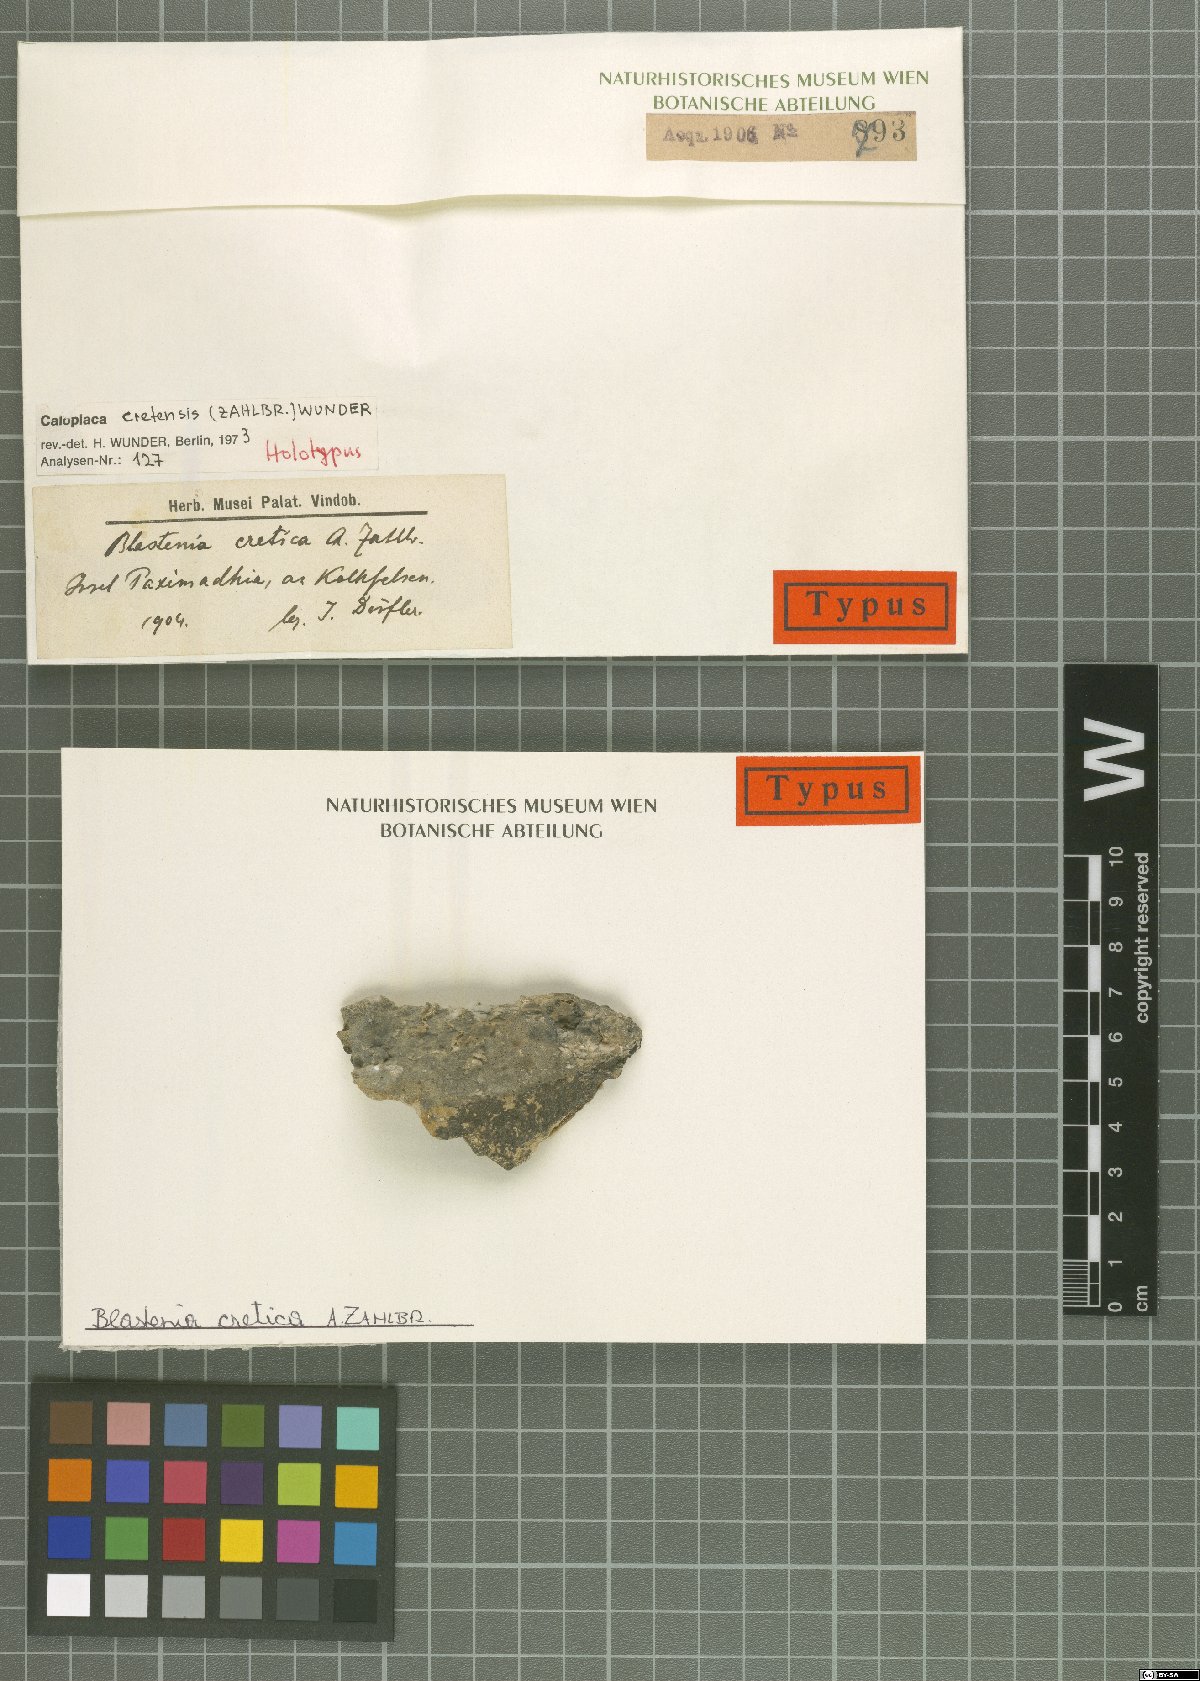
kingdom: Fungi
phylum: Ascomycota
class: Lecanoromycetes
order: Teloschistales
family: Teloschistaceae
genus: Kuettlingeria
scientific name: Kuettlingeria cretensis
